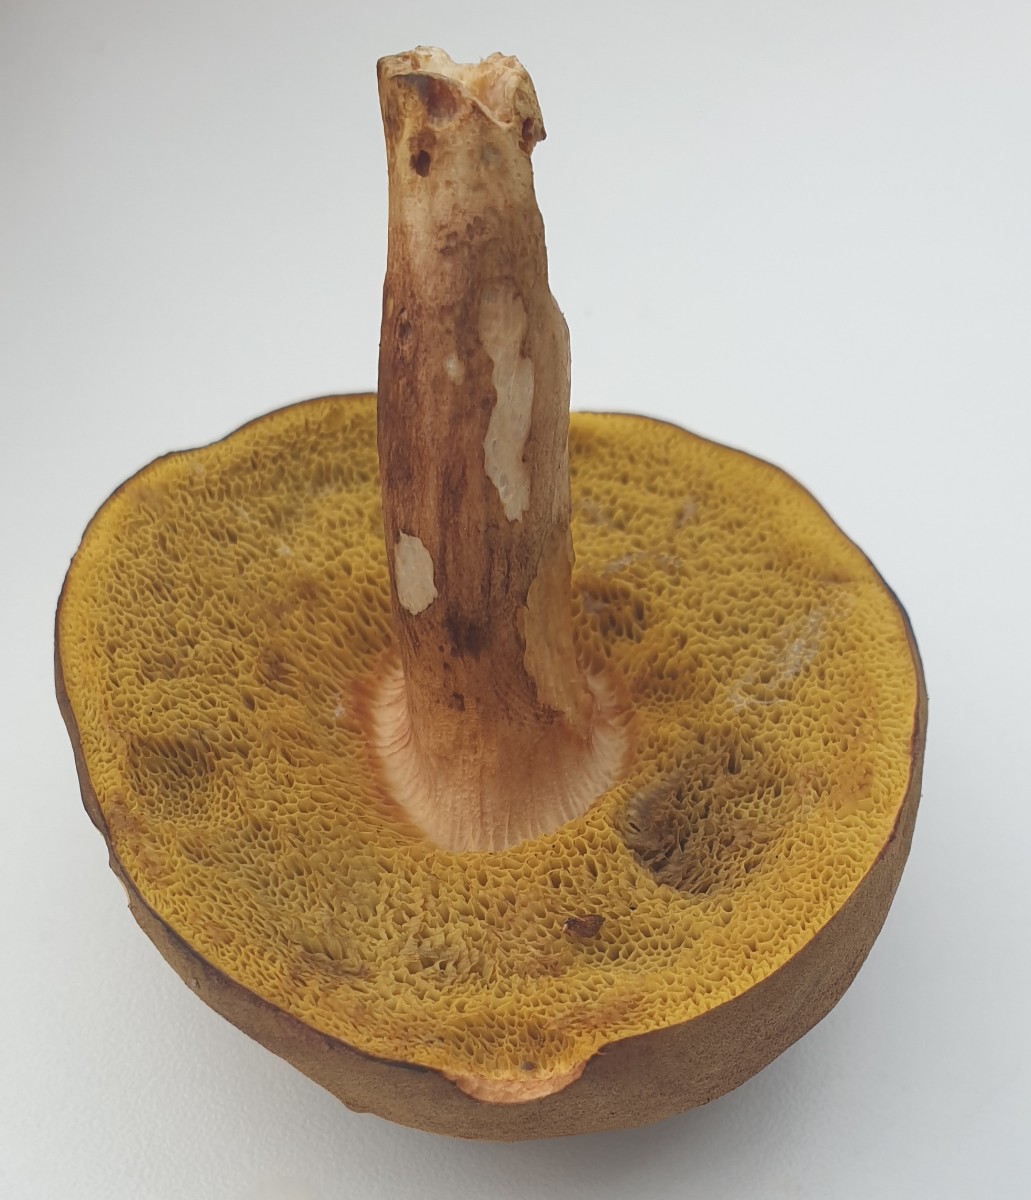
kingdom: Fungi
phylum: Basidiomycota
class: Agaricomycetes
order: Boletales
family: Boletaceae
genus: Xerocomus
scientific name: Xerocomus ferrugineus
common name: vaskeskinds-rørhat
